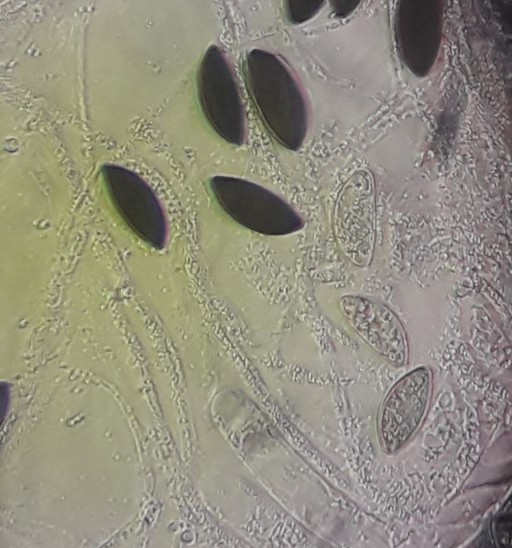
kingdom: Fungi
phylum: Ascomycota
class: Sordariomycetes
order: Xylariales
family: Xylariaceae
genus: Rosellinia
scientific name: Rosellinia corticium
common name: måtte-kulkaviar
